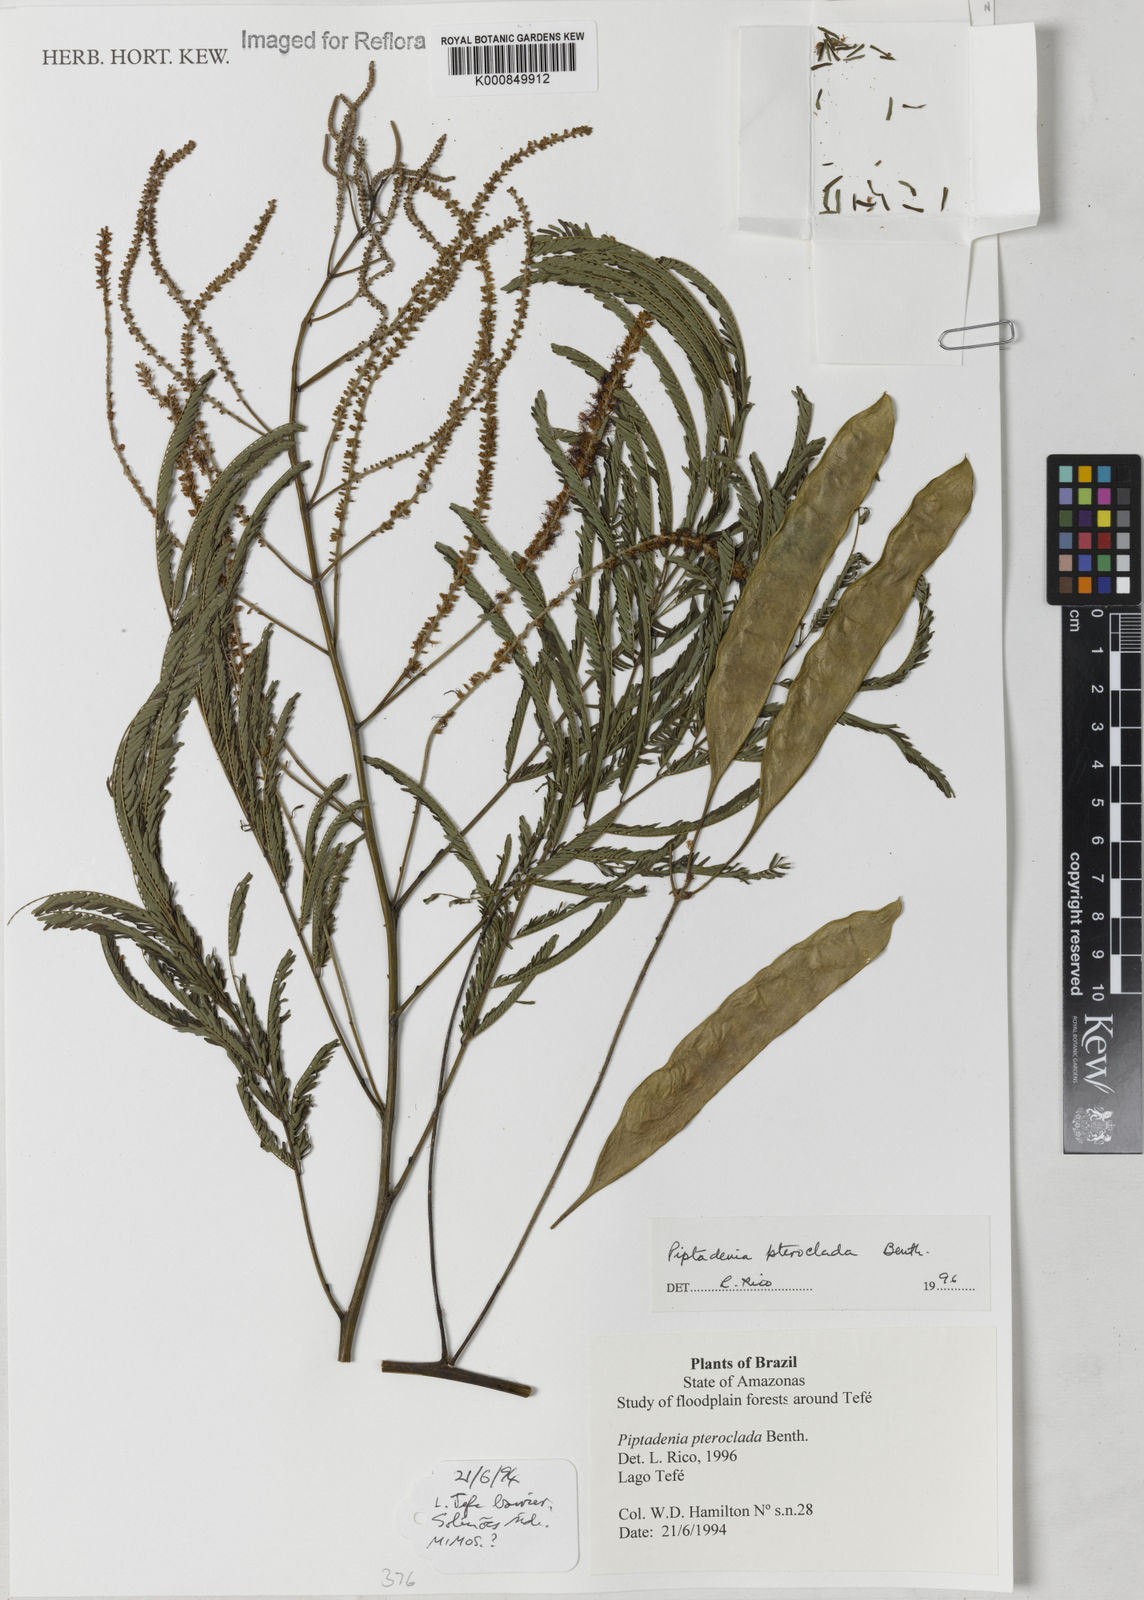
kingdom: Plantae
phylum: Tracheophyta
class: Magnoliopsida
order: Fabales
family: Fabaceae
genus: Piptadenia
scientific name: Piptadenia pteroclada
